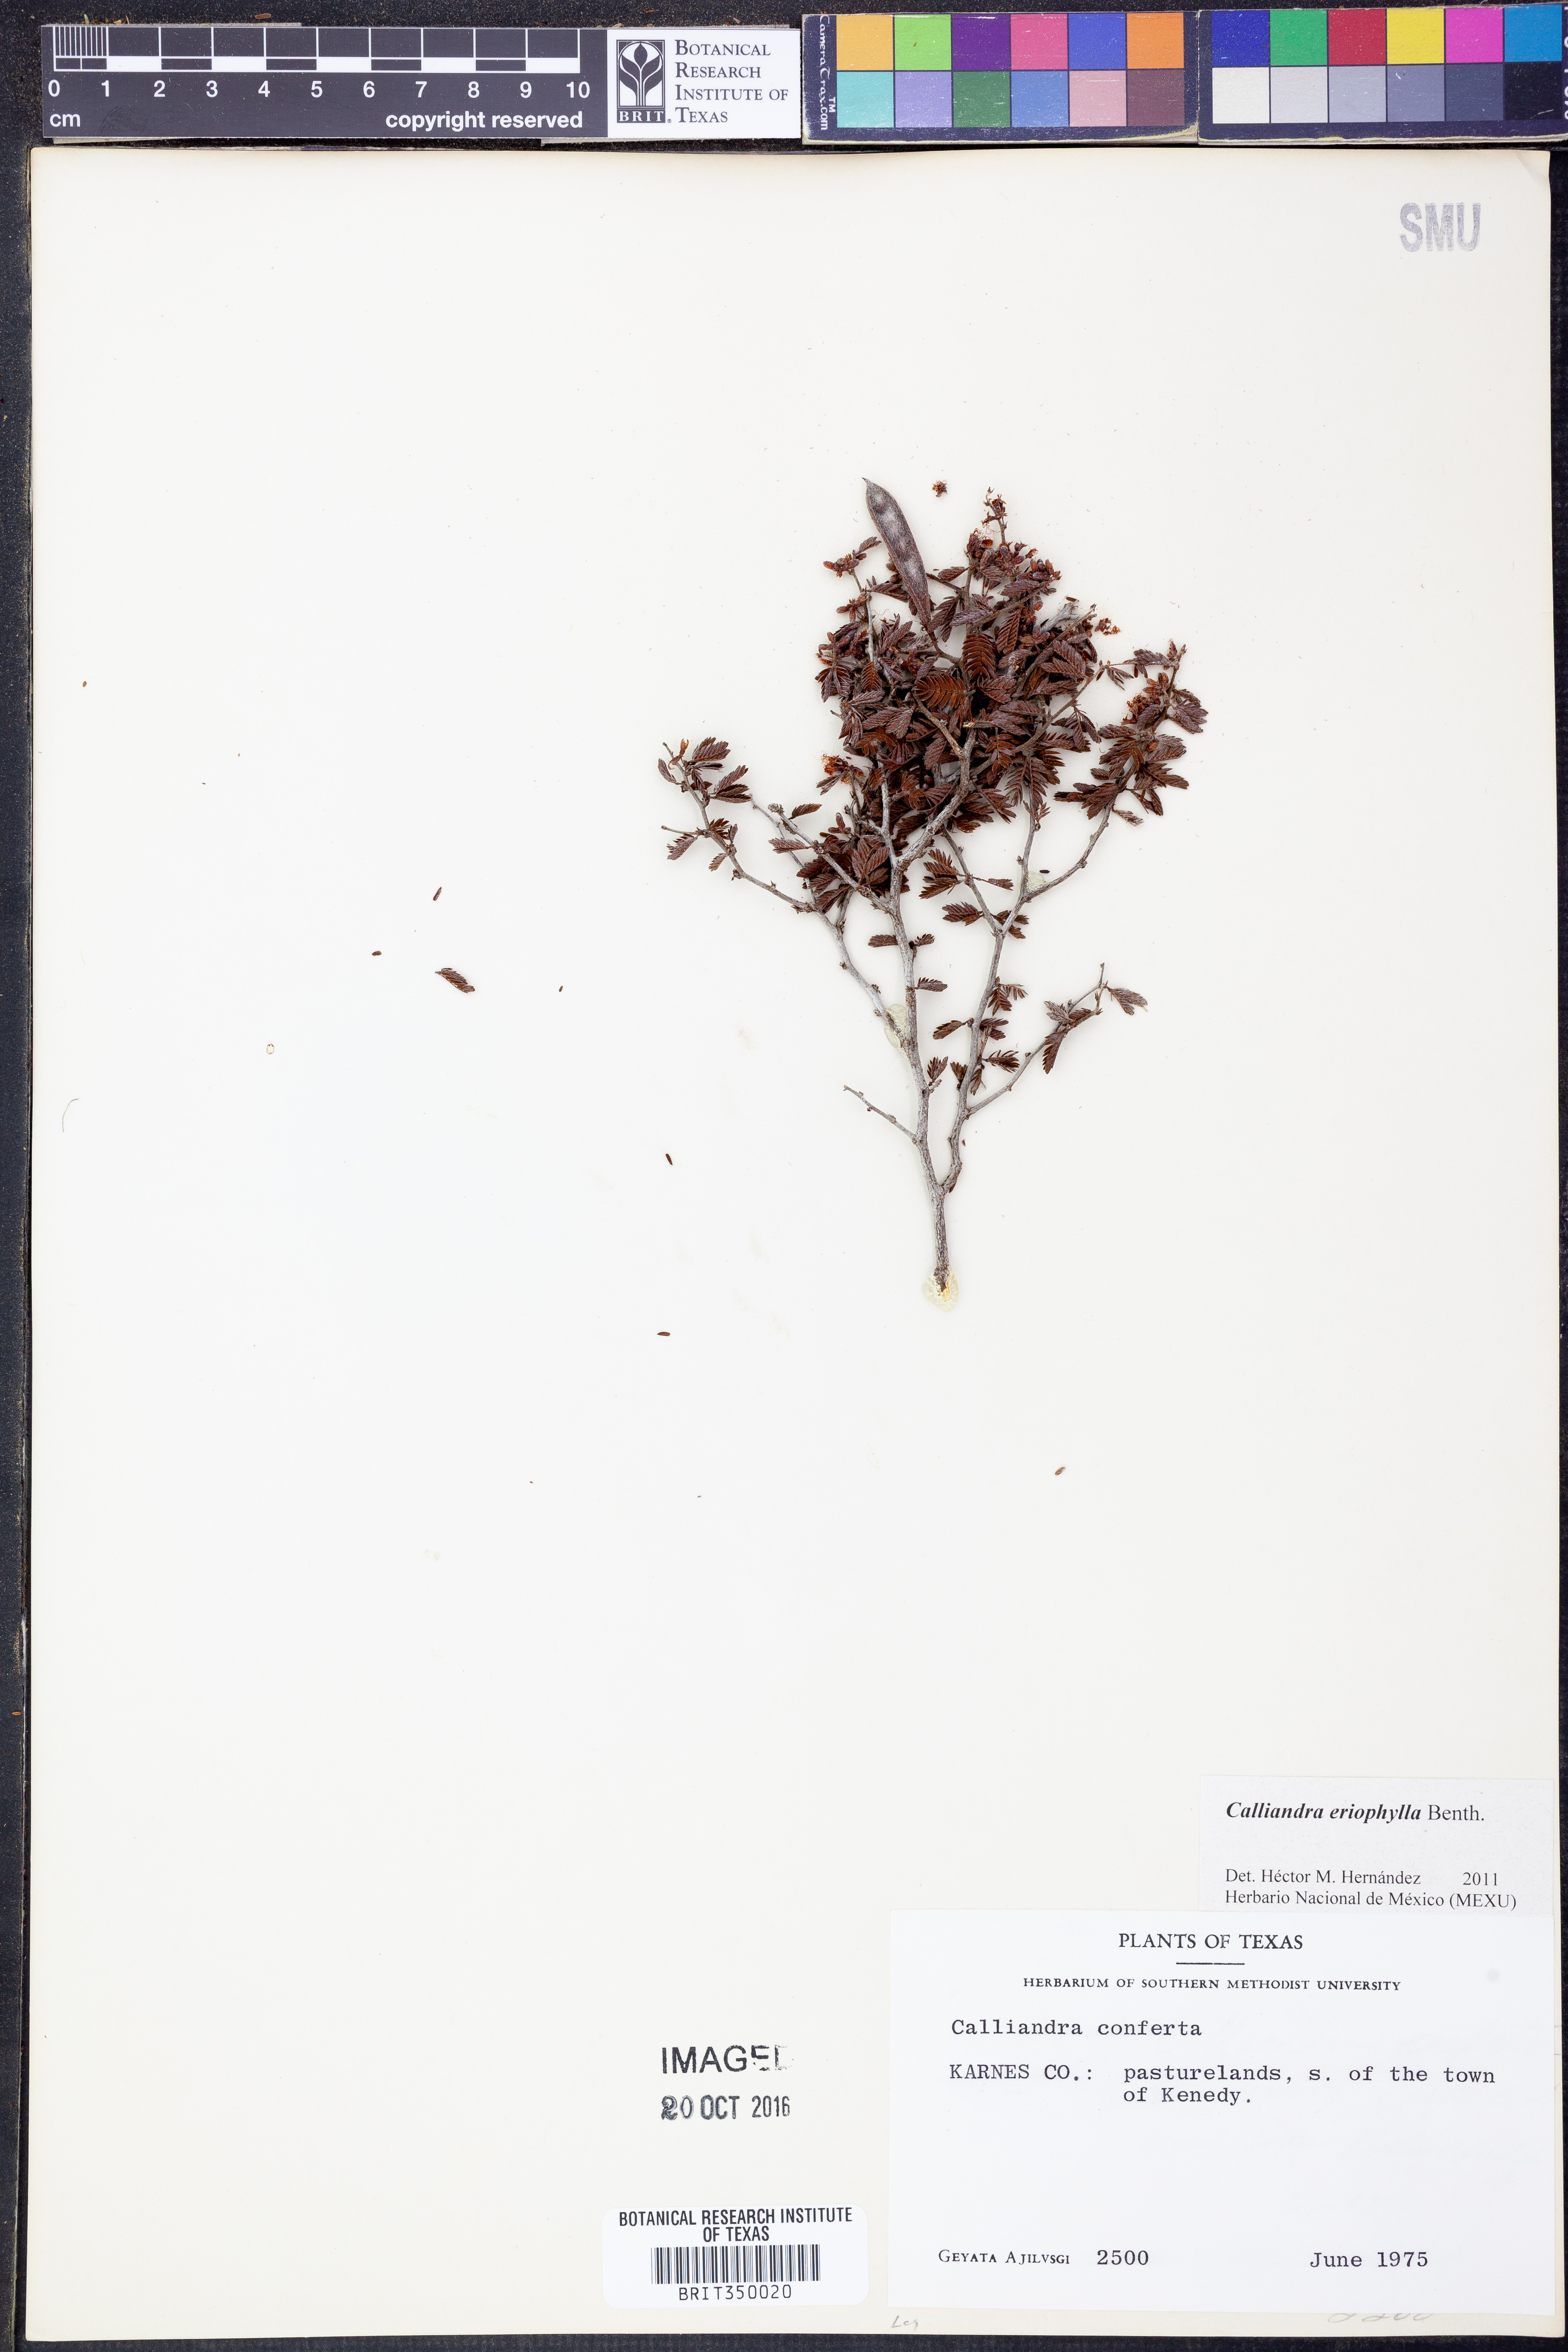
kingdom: Plantae
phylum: Tracheophyta
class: Magnoliopsida
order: Fabales
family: Fabaceae
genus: Calliandra
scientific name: Calliandra eriophylla
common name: Fairy-duster
